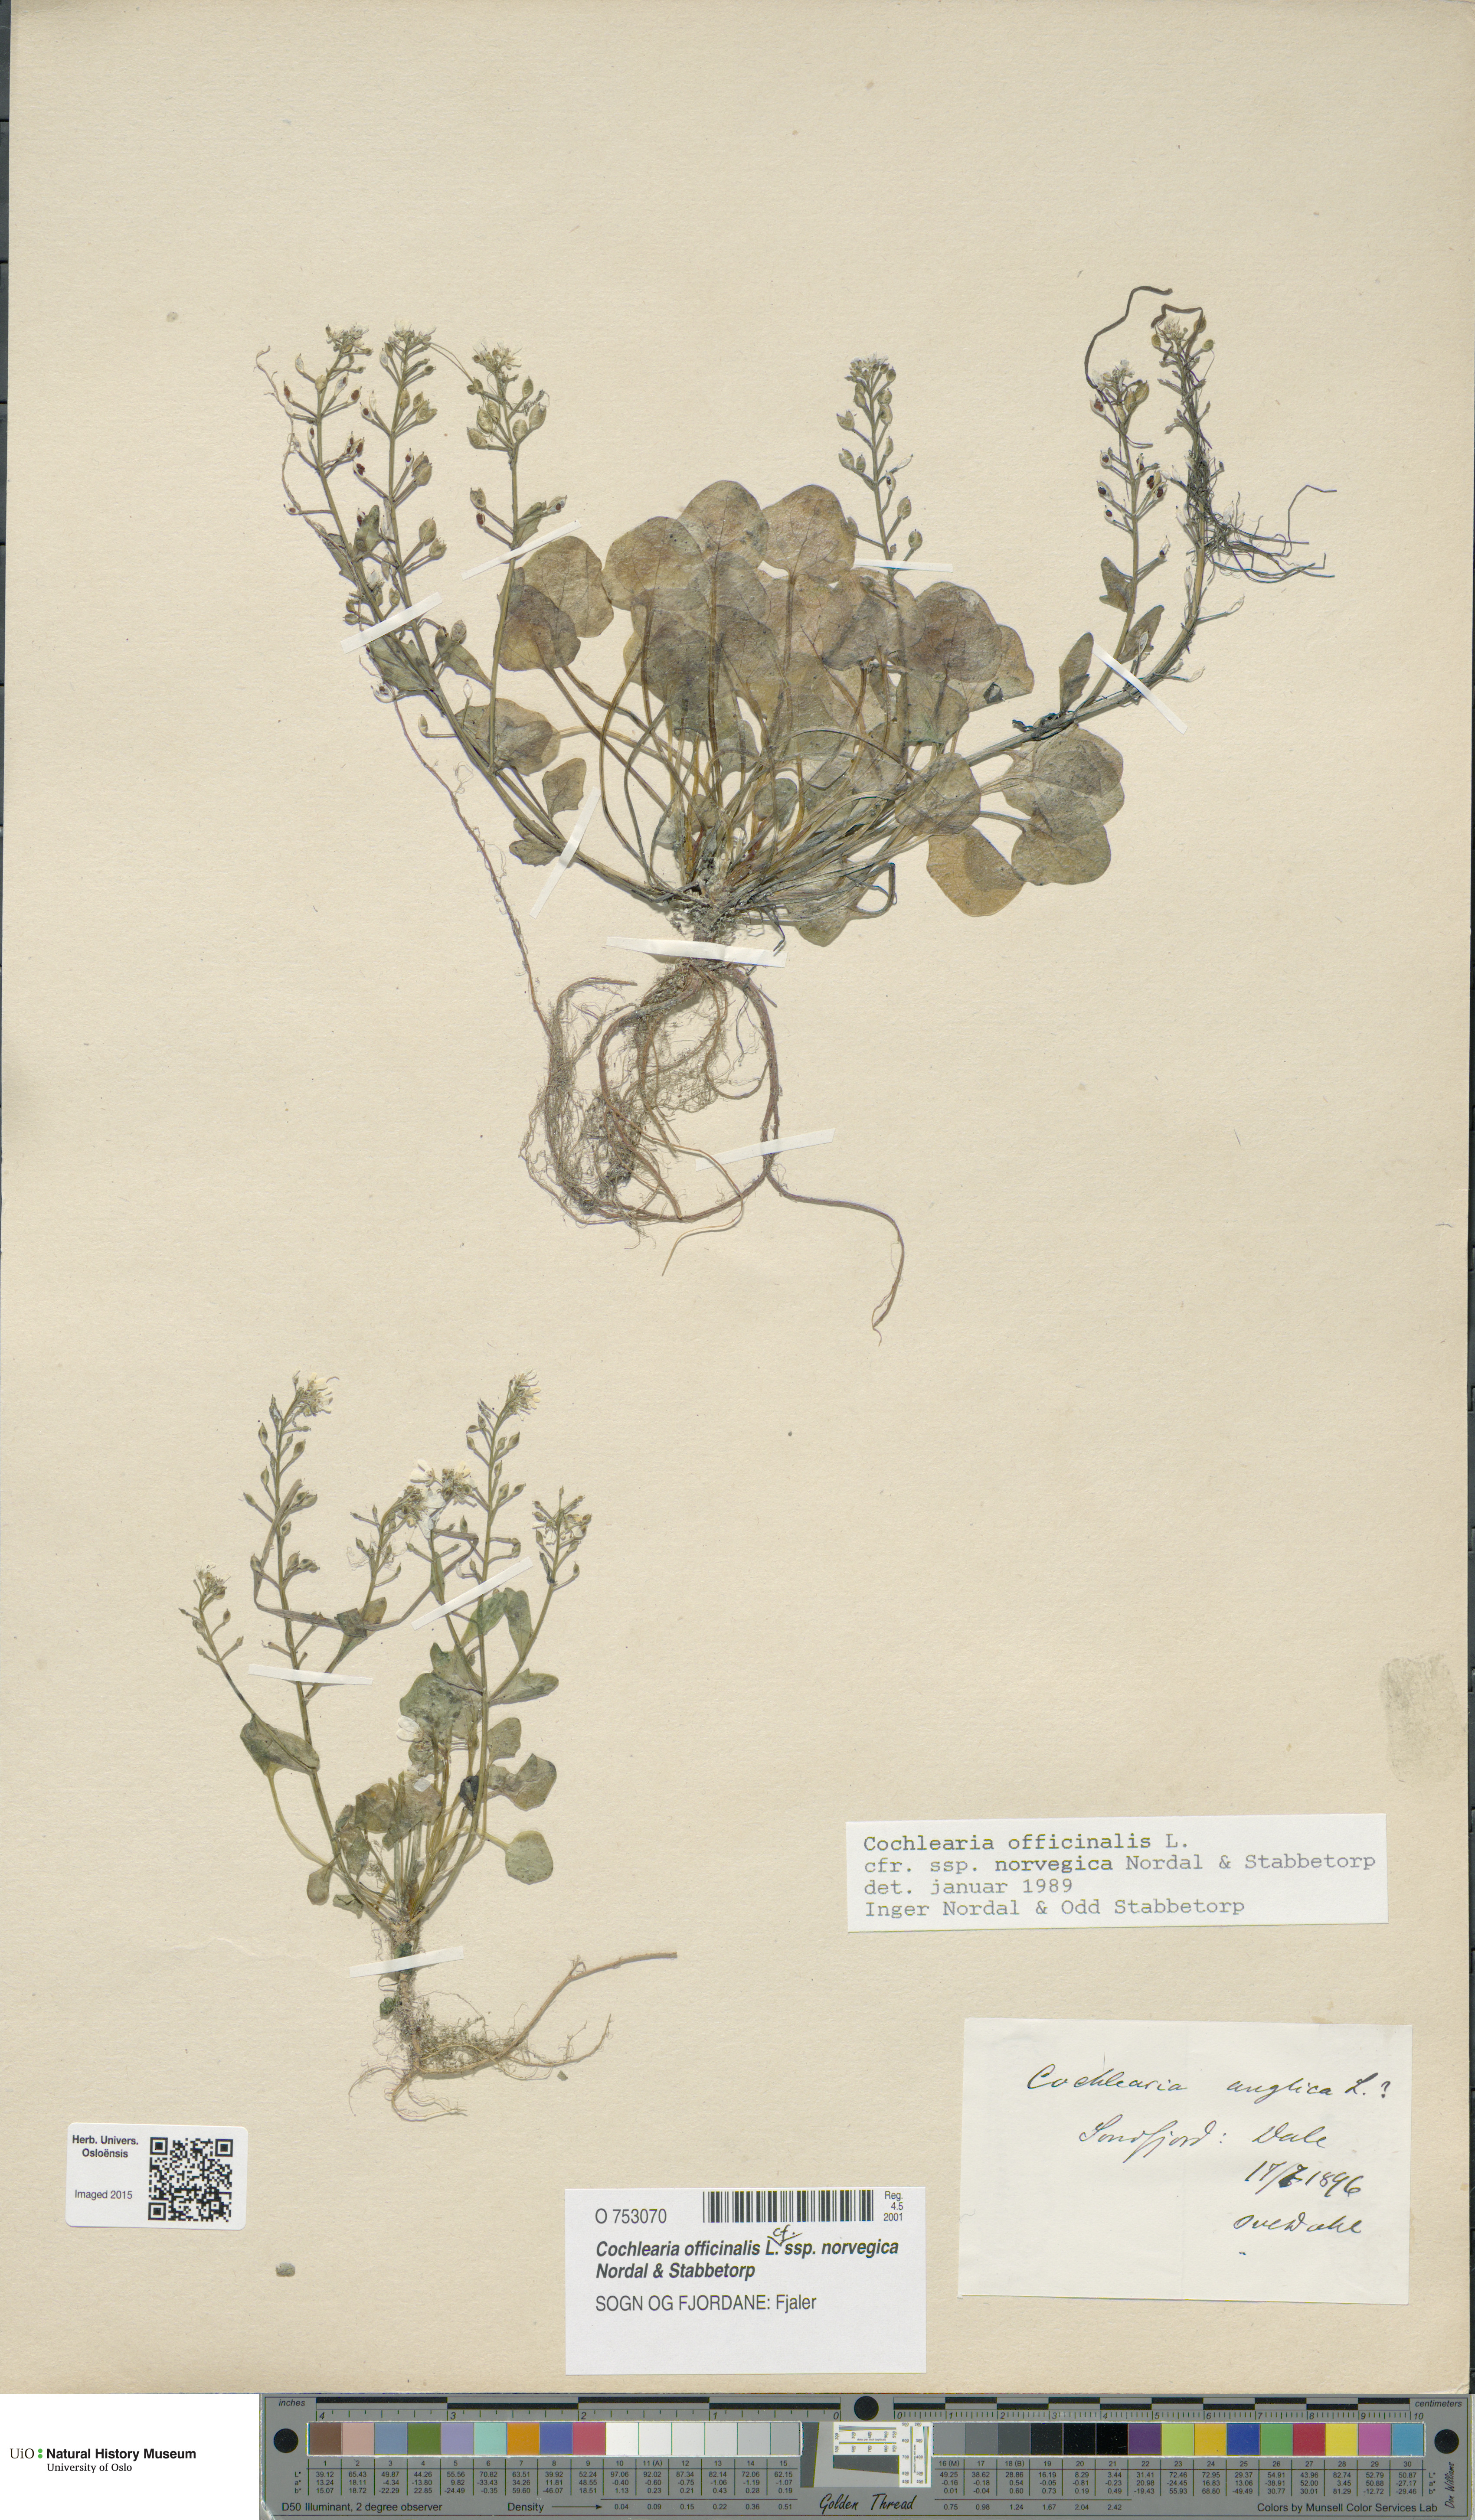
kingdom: Plantae
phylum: Tracheophyta
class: Magnoliopsida
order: Brassicales
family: Brassicaceae
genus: Cochlearia
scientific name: Cochlearia officinalis
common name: Scurvy-grass
